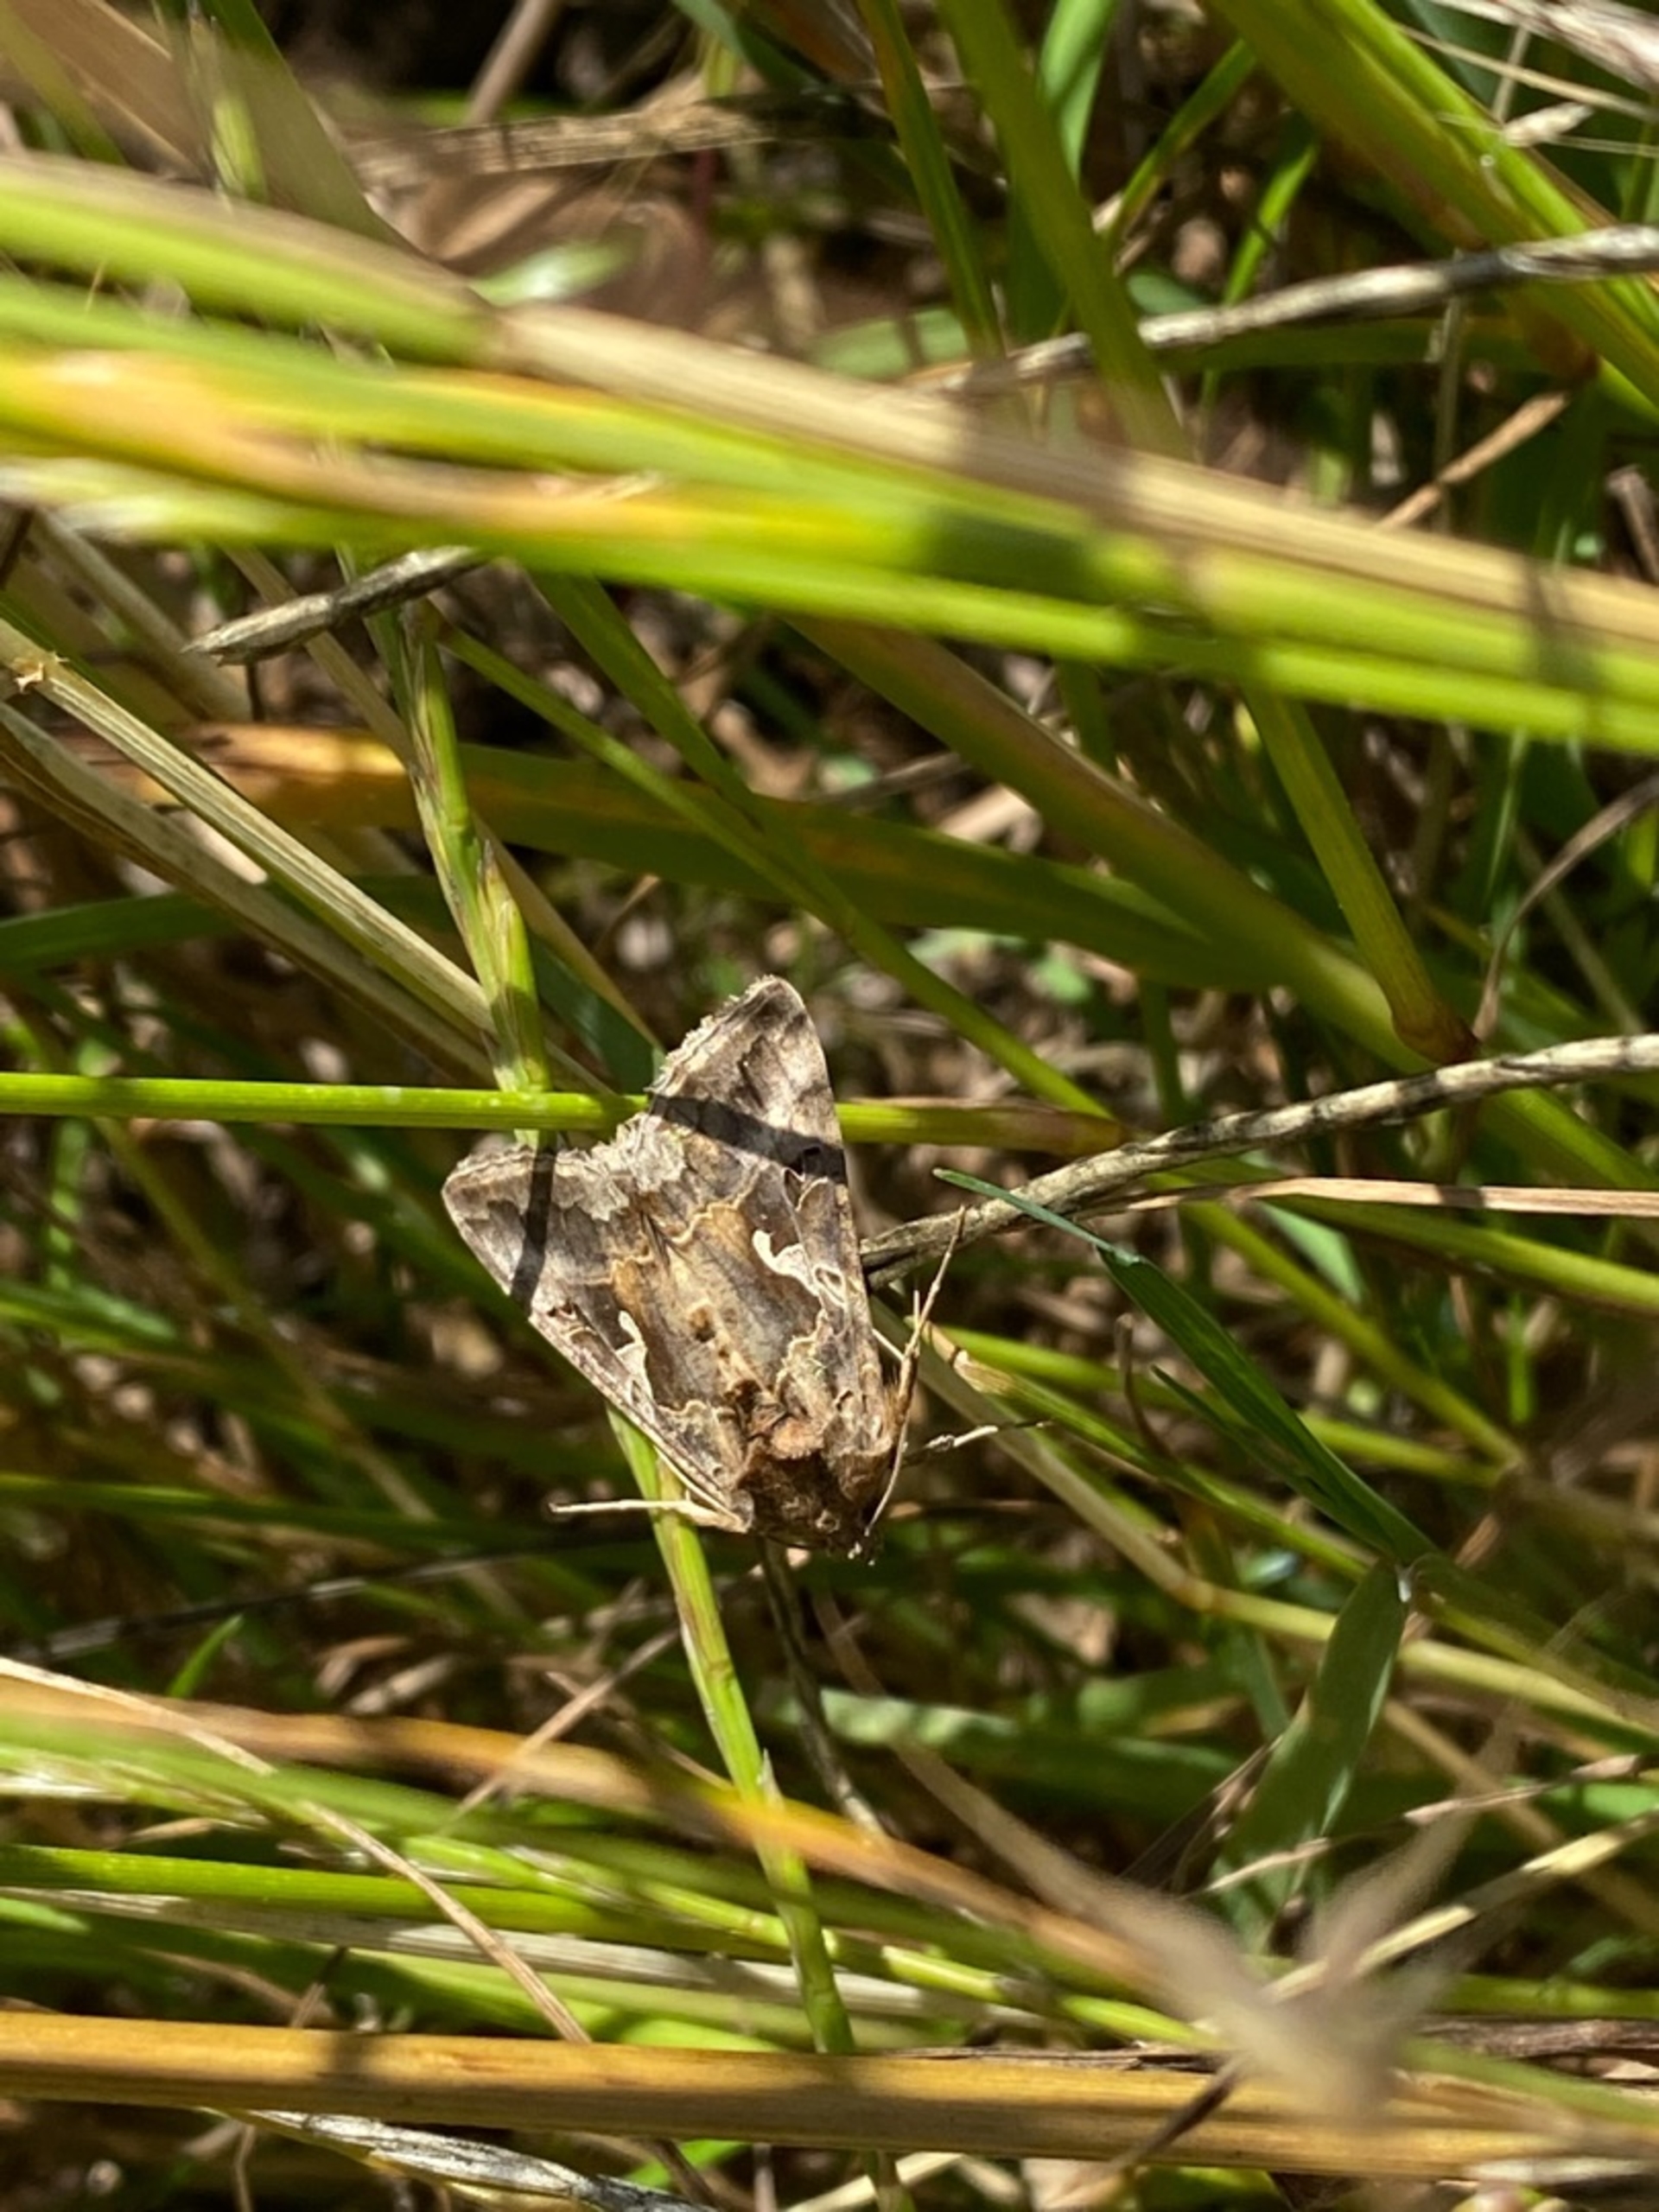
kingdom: Animalia
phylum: Arthropoda
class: Insecta
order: Lepidoptera
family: Noctuidae
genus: Autographa
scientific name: Autographa gamma
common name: Gammaugle
